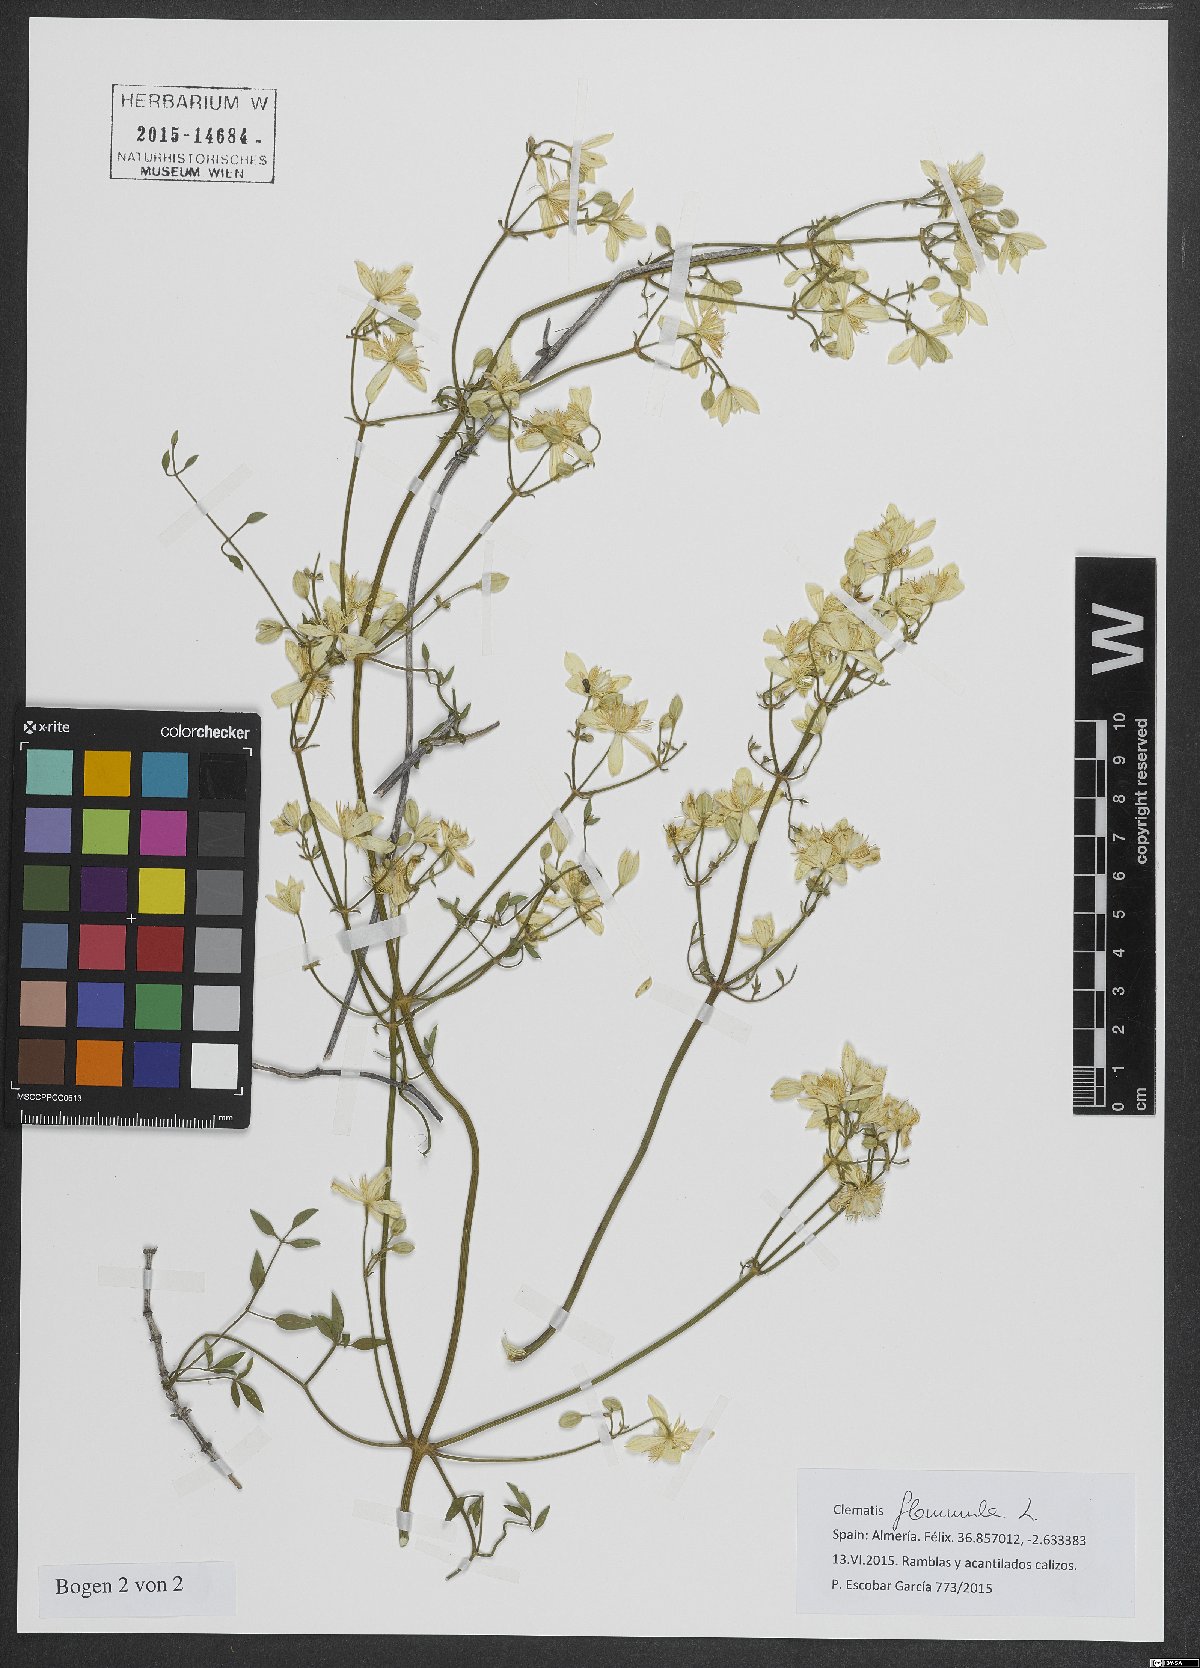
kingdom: Plantae
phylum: Tracheophyta
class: Magnoliopsida
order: Ranunculales
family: Ranunculaceae
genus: Clematis
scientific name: Clematis flammula
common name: Virgin's-bower
